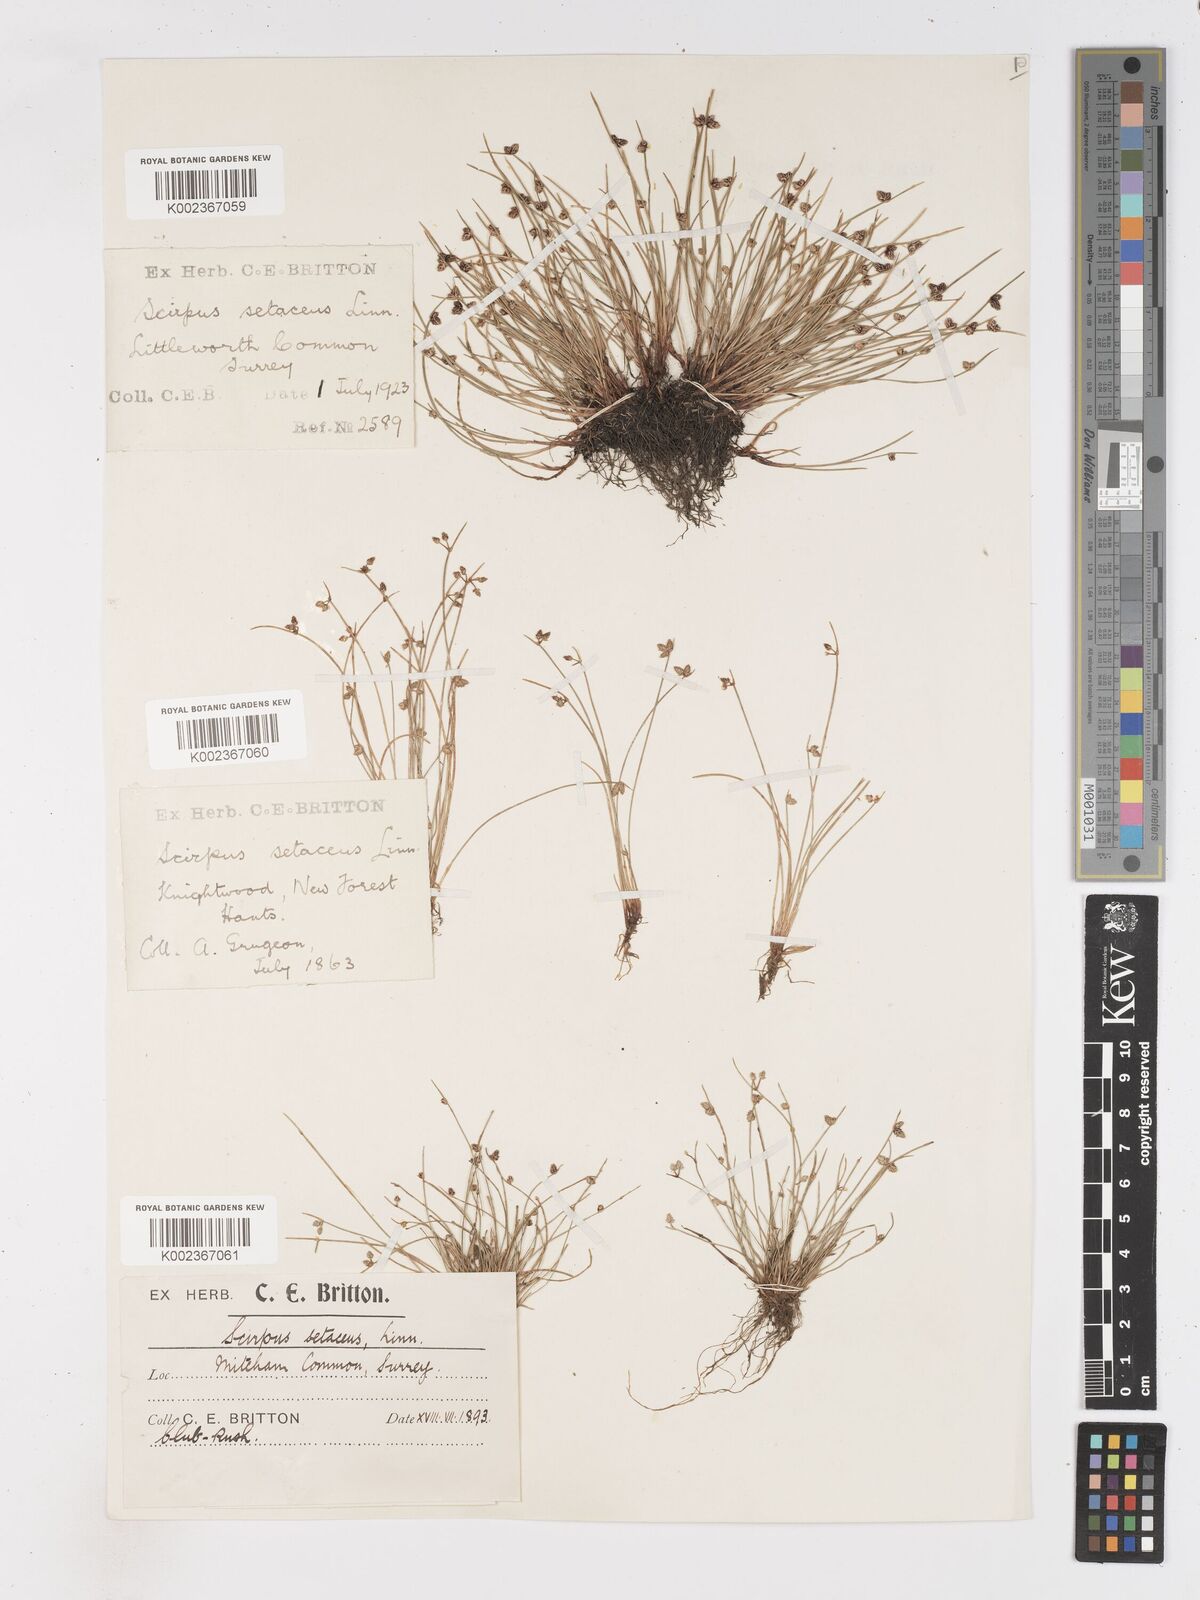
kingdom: Plantae
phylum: Tracheophyta
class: Liliopsida
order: Poales
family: Cyperaceae
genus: Isolepis
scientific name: Isolepis setacea
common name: Bristle club-rush
